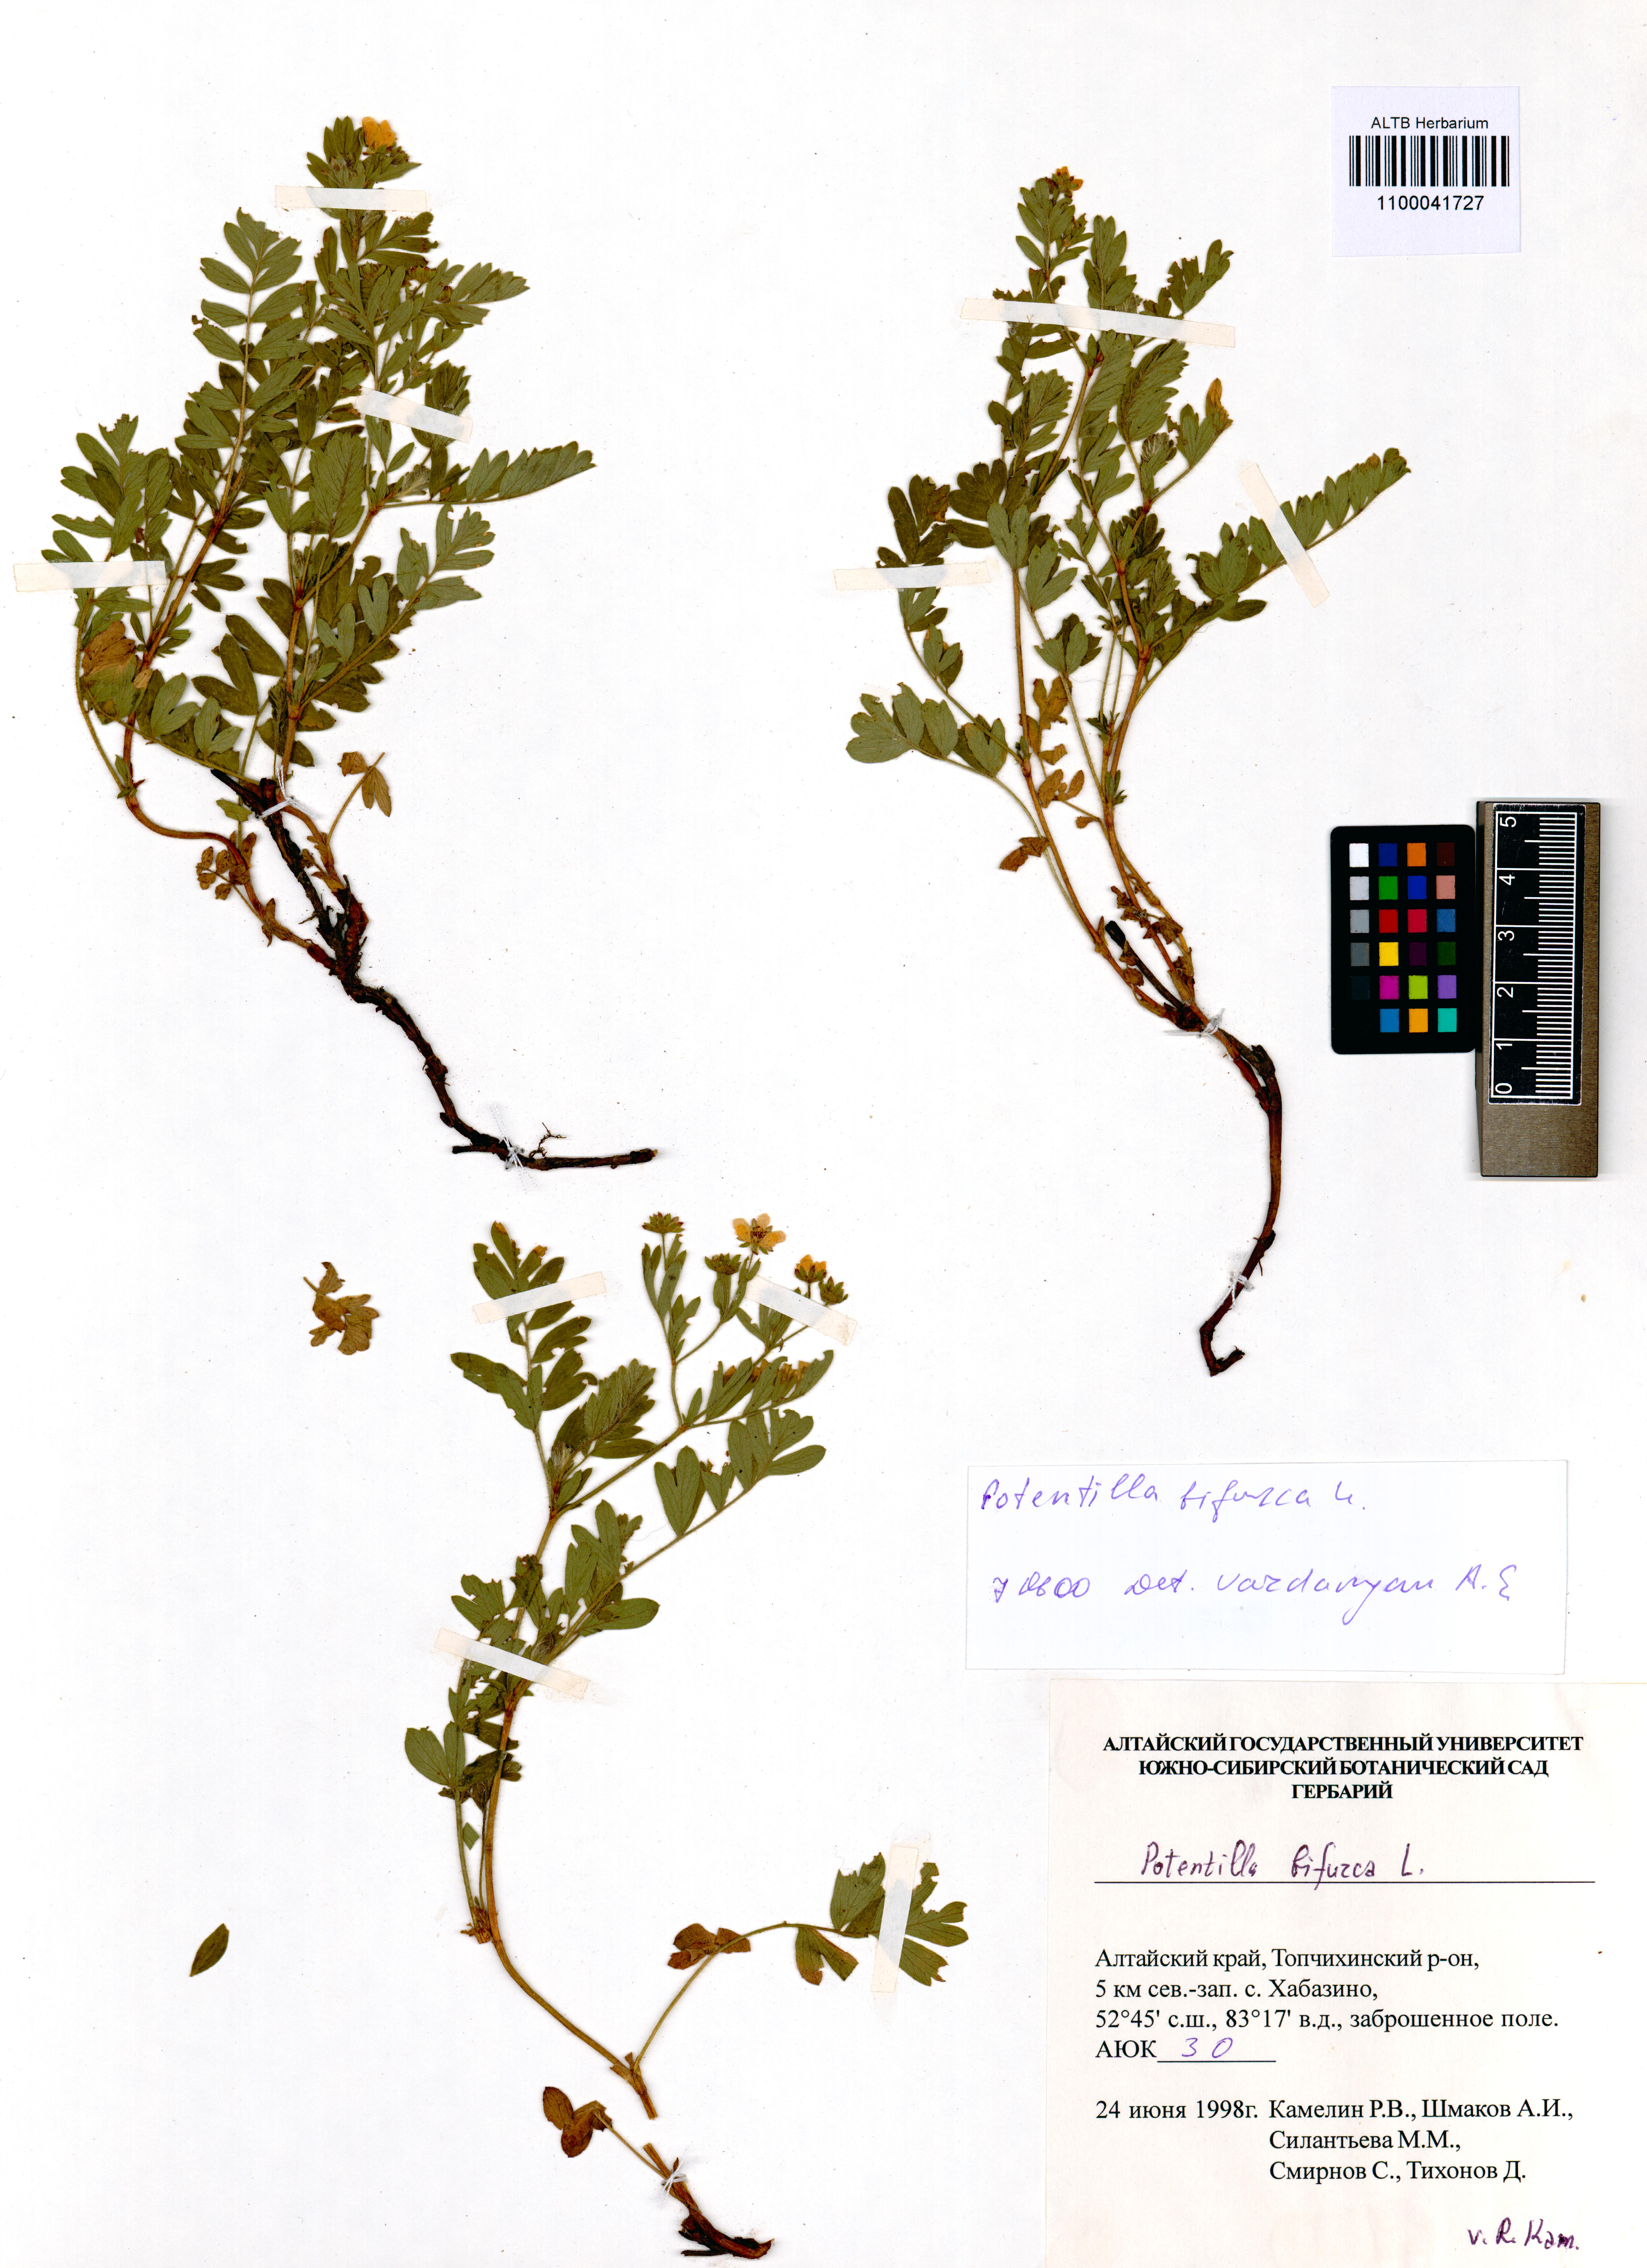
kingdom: Plantae
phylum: Tracheophyta
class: Magnoliopsida
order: Rosales
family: Rosaceae
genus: Sibbaldianthe
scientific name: Sibbaldianthe bifurca
